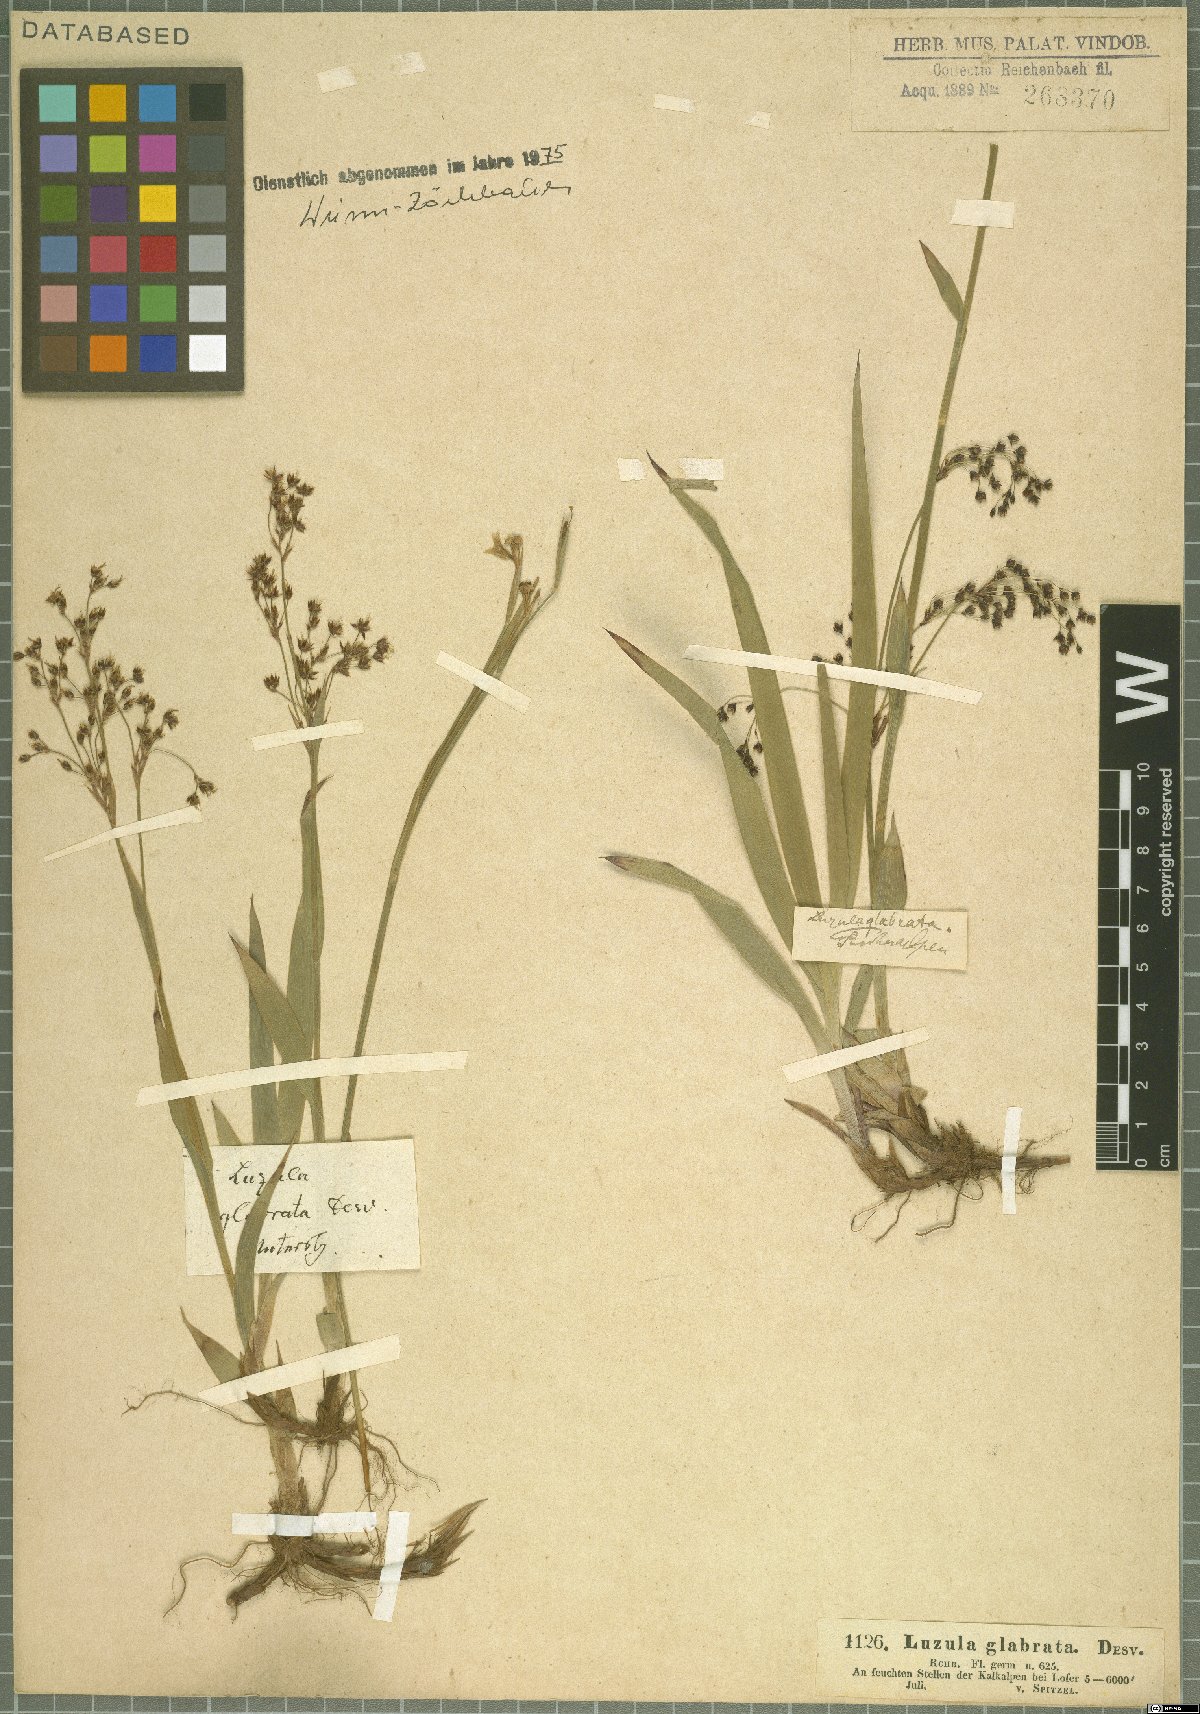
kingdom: Plantae
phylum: Tracheophyta
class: Liliopsida
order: Poales
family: Juncaceae
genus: Luzula
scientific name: Luzula glabrata
